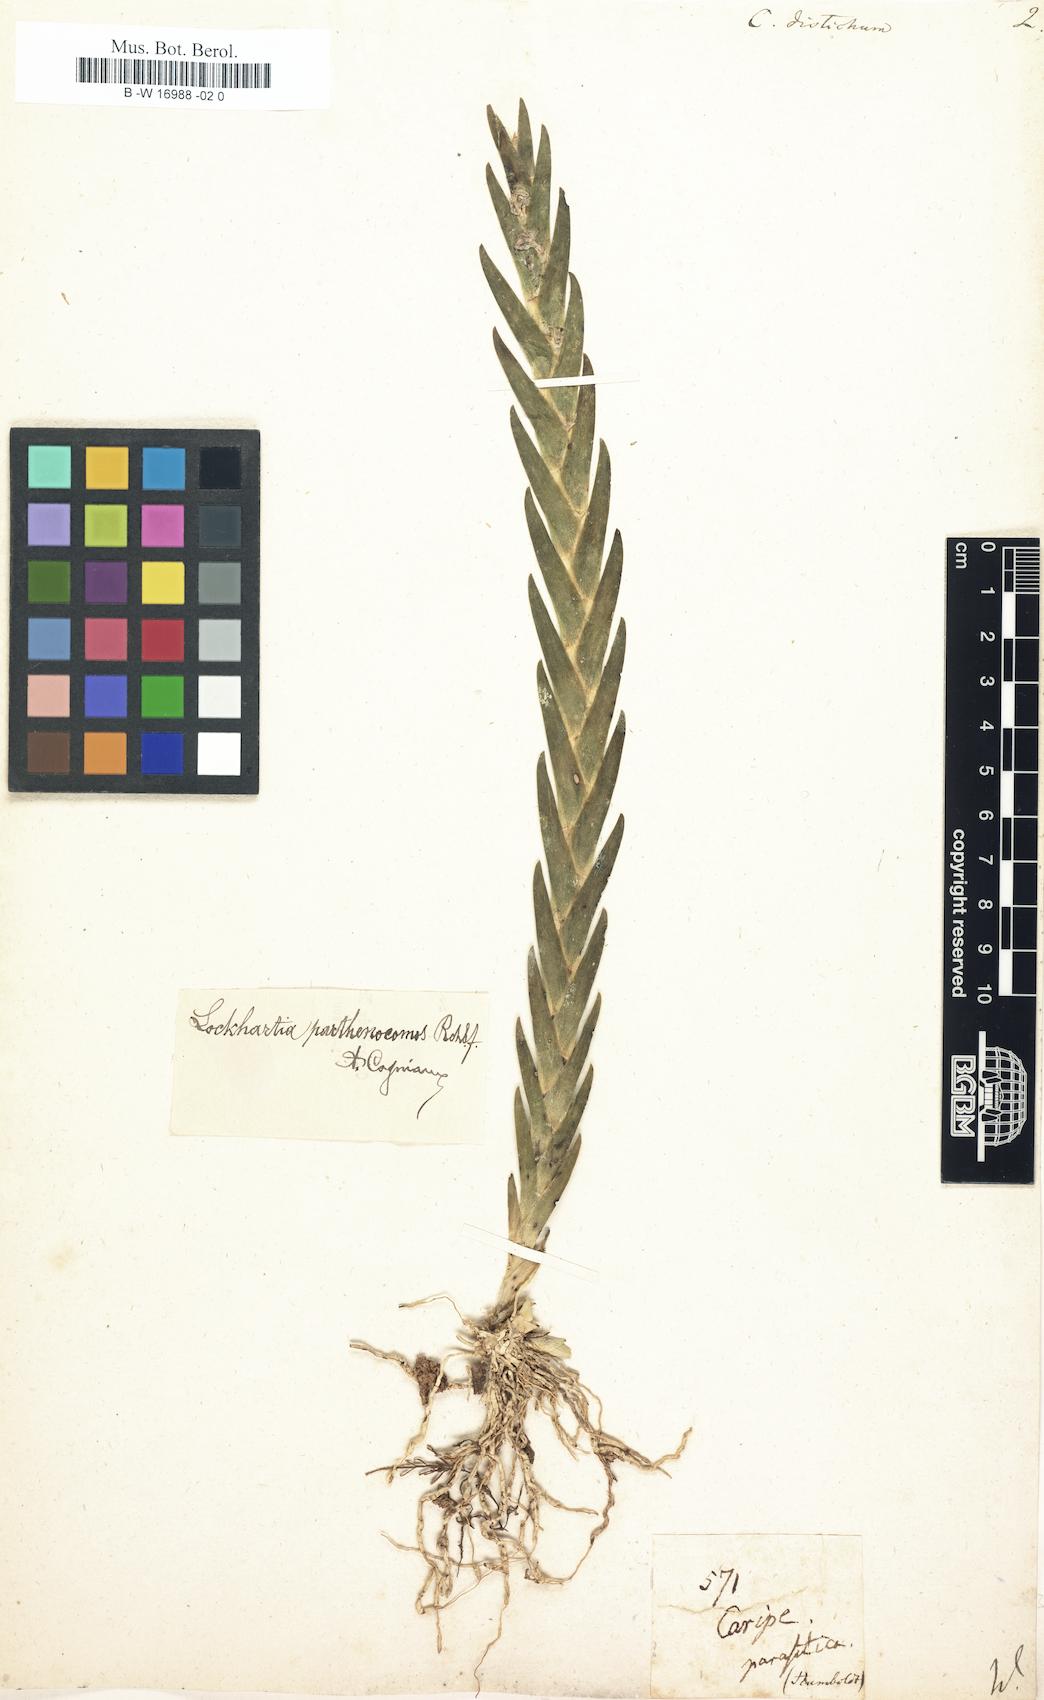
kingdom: Plantae
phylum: Tracheophyta
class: Liliopsida
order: Asparagales
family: Orchidaceae
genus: Cymbidium
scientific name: Cymbidium
